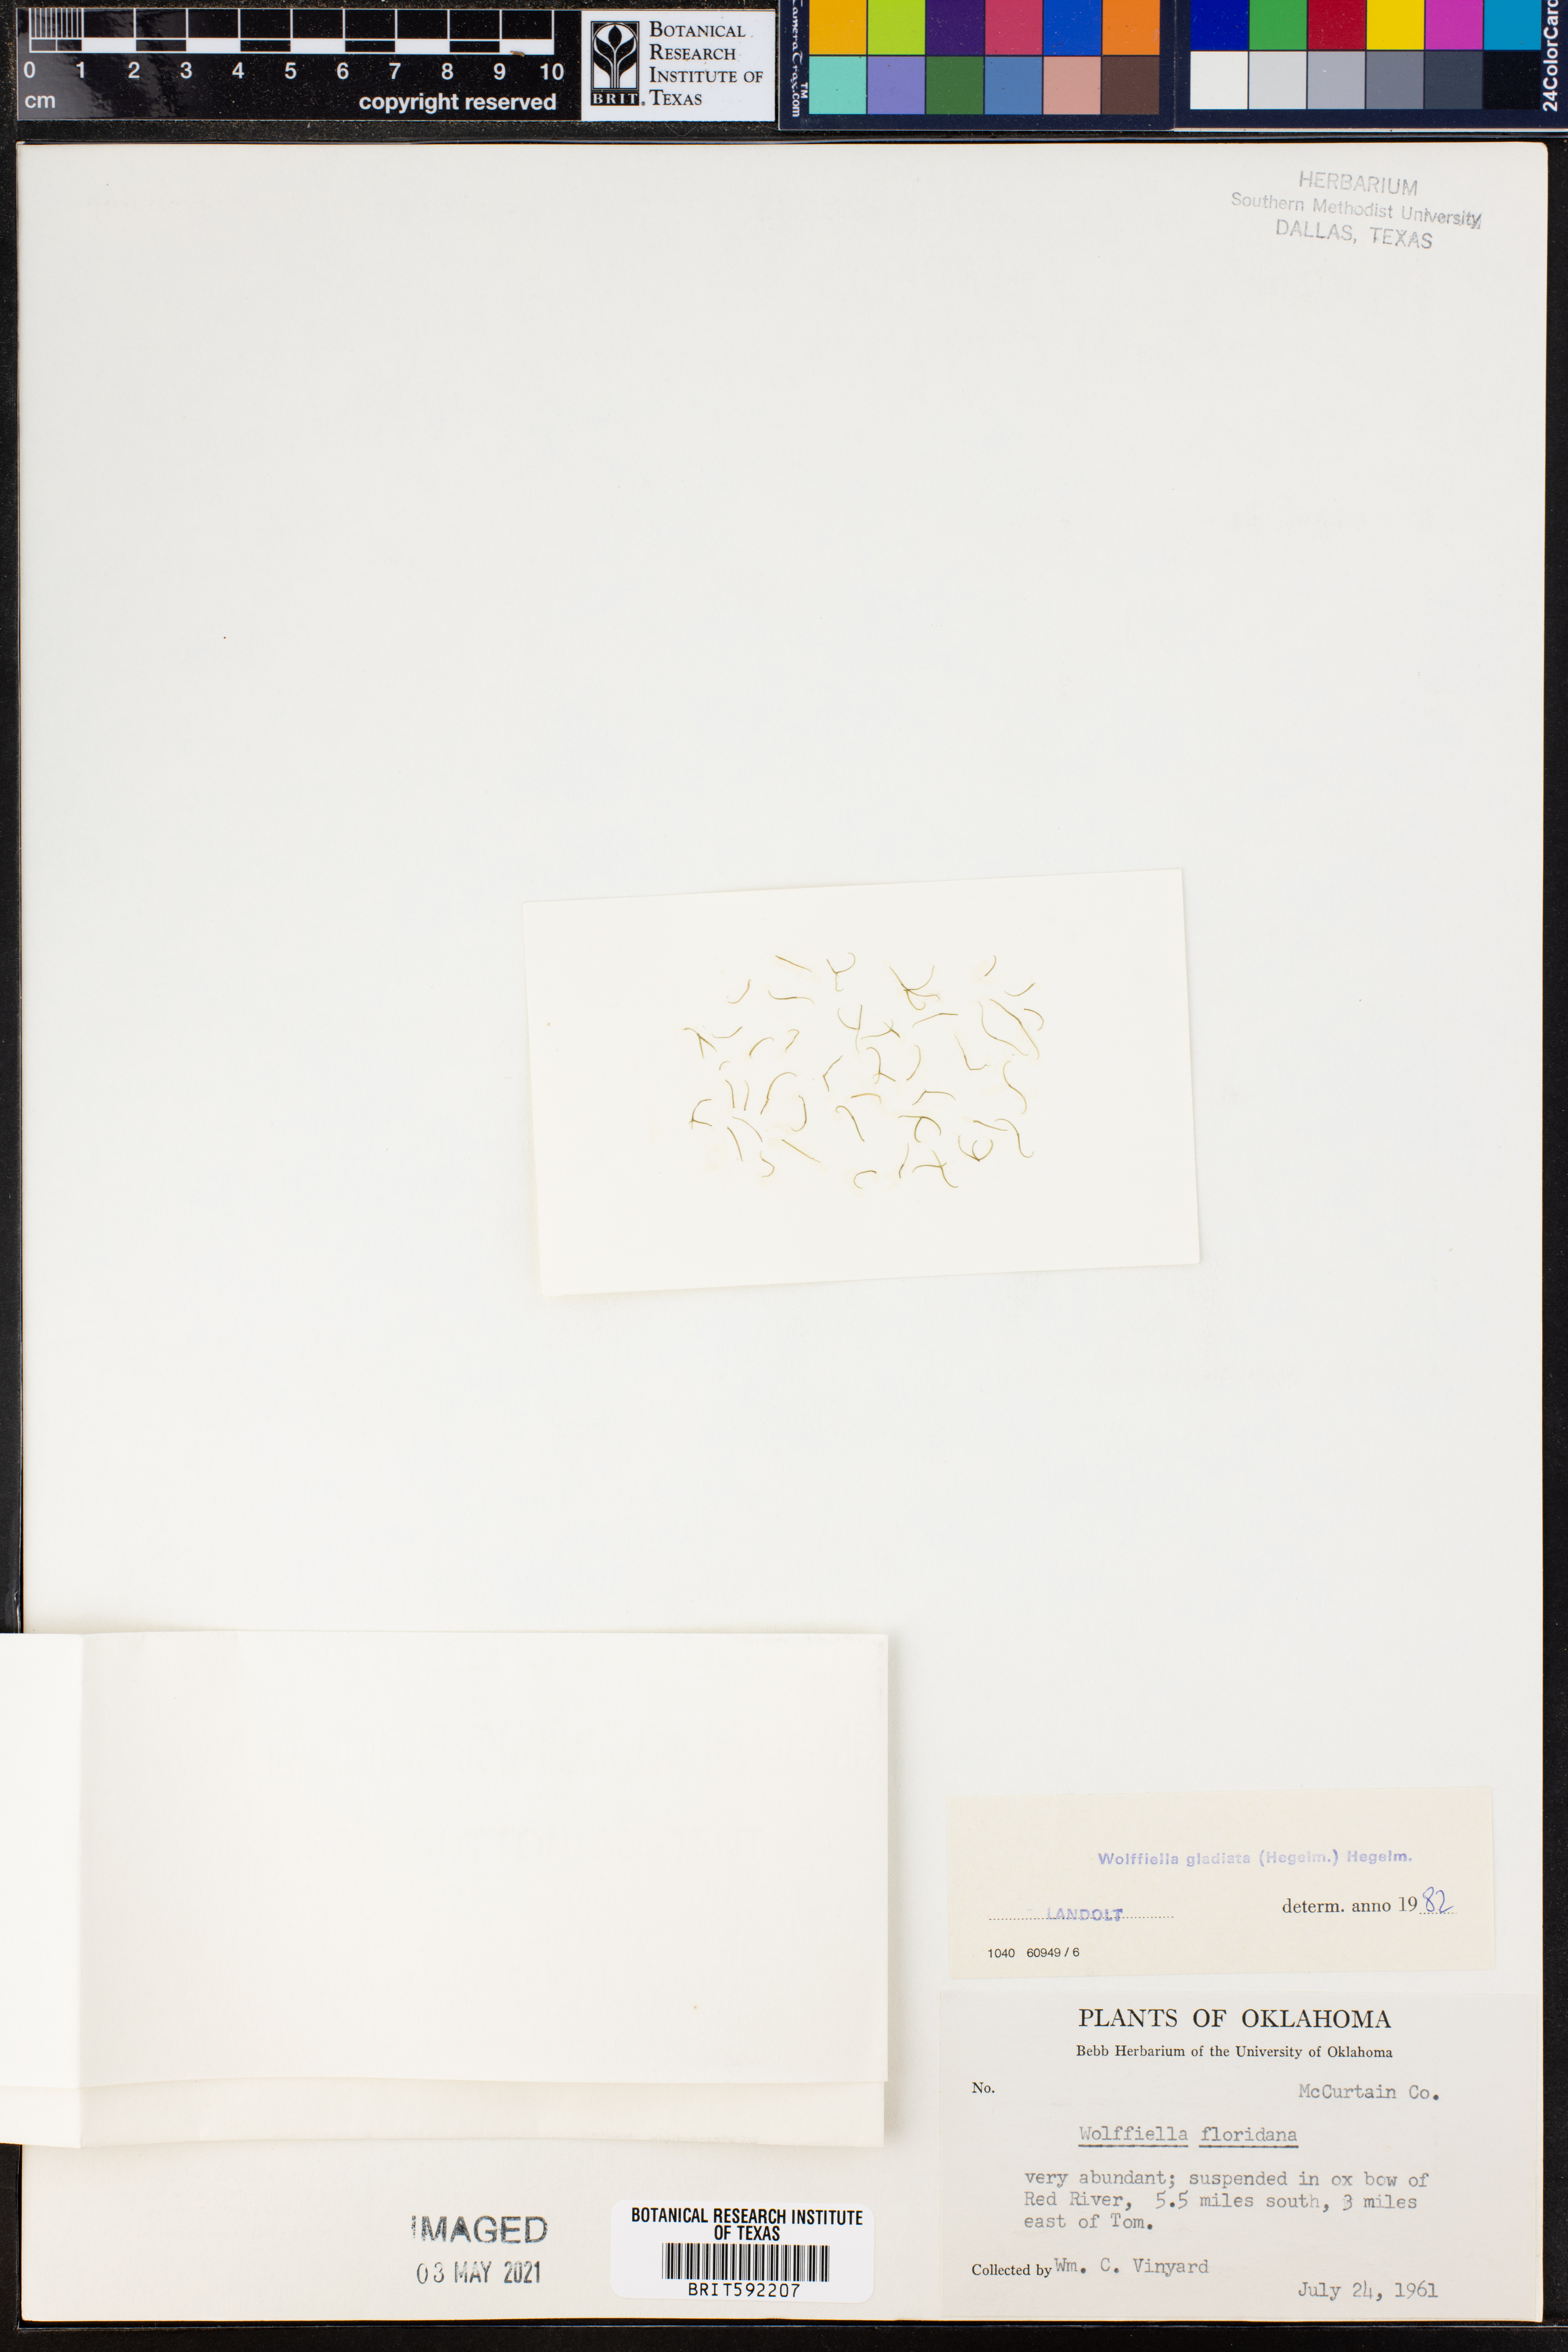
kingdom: Plantae
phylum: Tracheophyta
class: Liliopsida
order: Alismatales
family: Araceae
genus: Wolffiella
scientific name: Wolffiella gladiata
